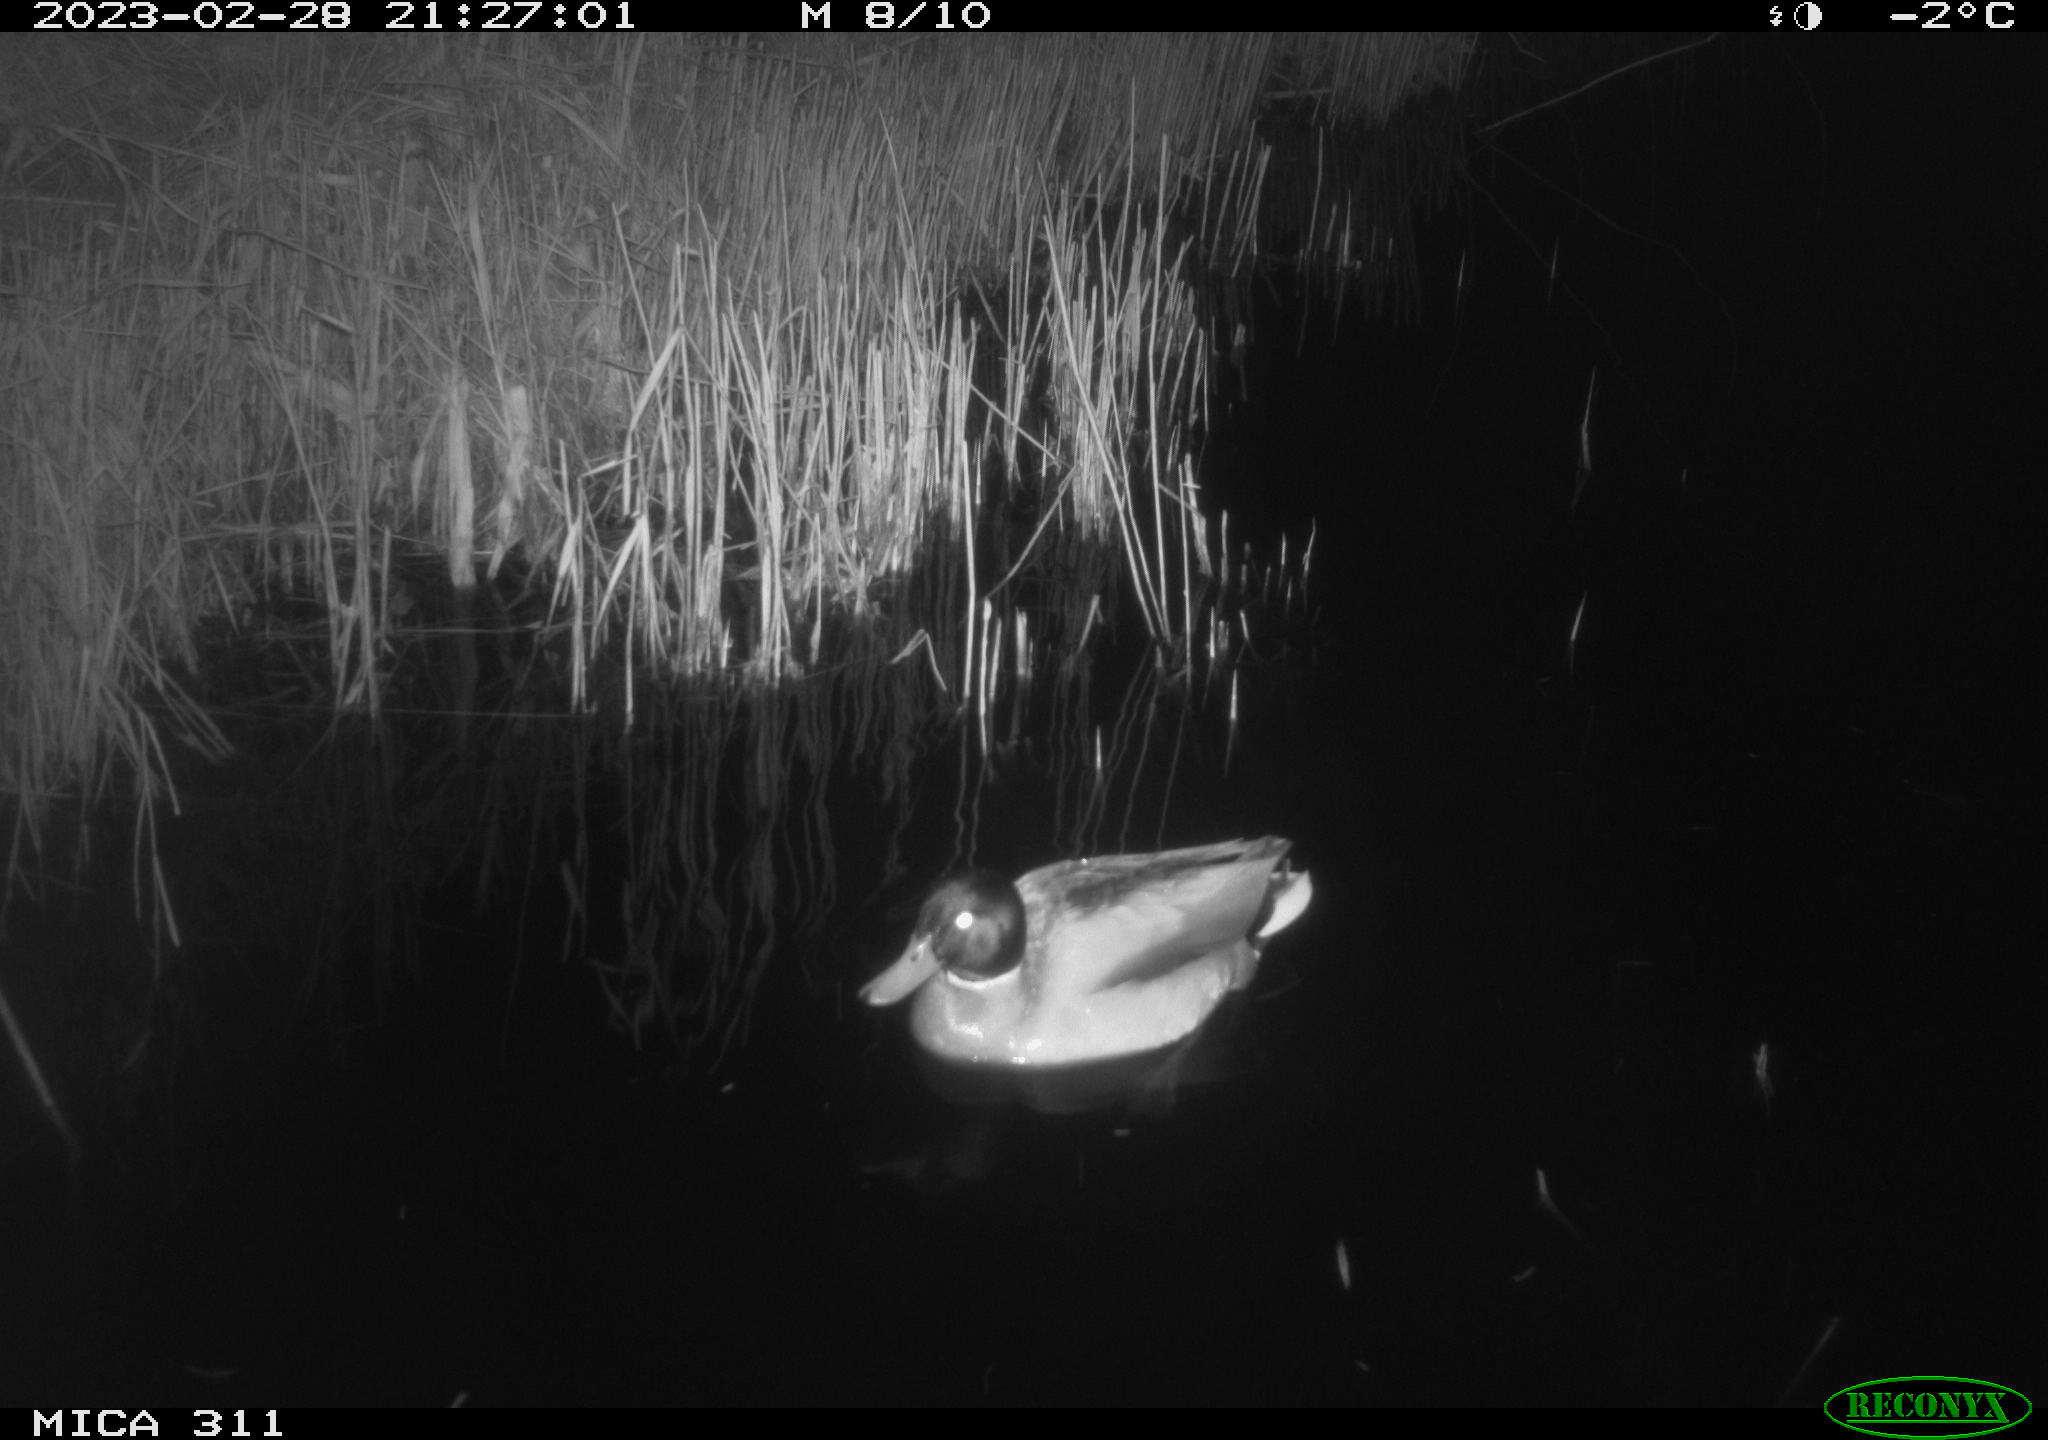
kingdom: Animalia
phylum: Chordata
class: Aves
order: Anseriformes
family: Anatidae
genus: Anas
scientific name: Anas
